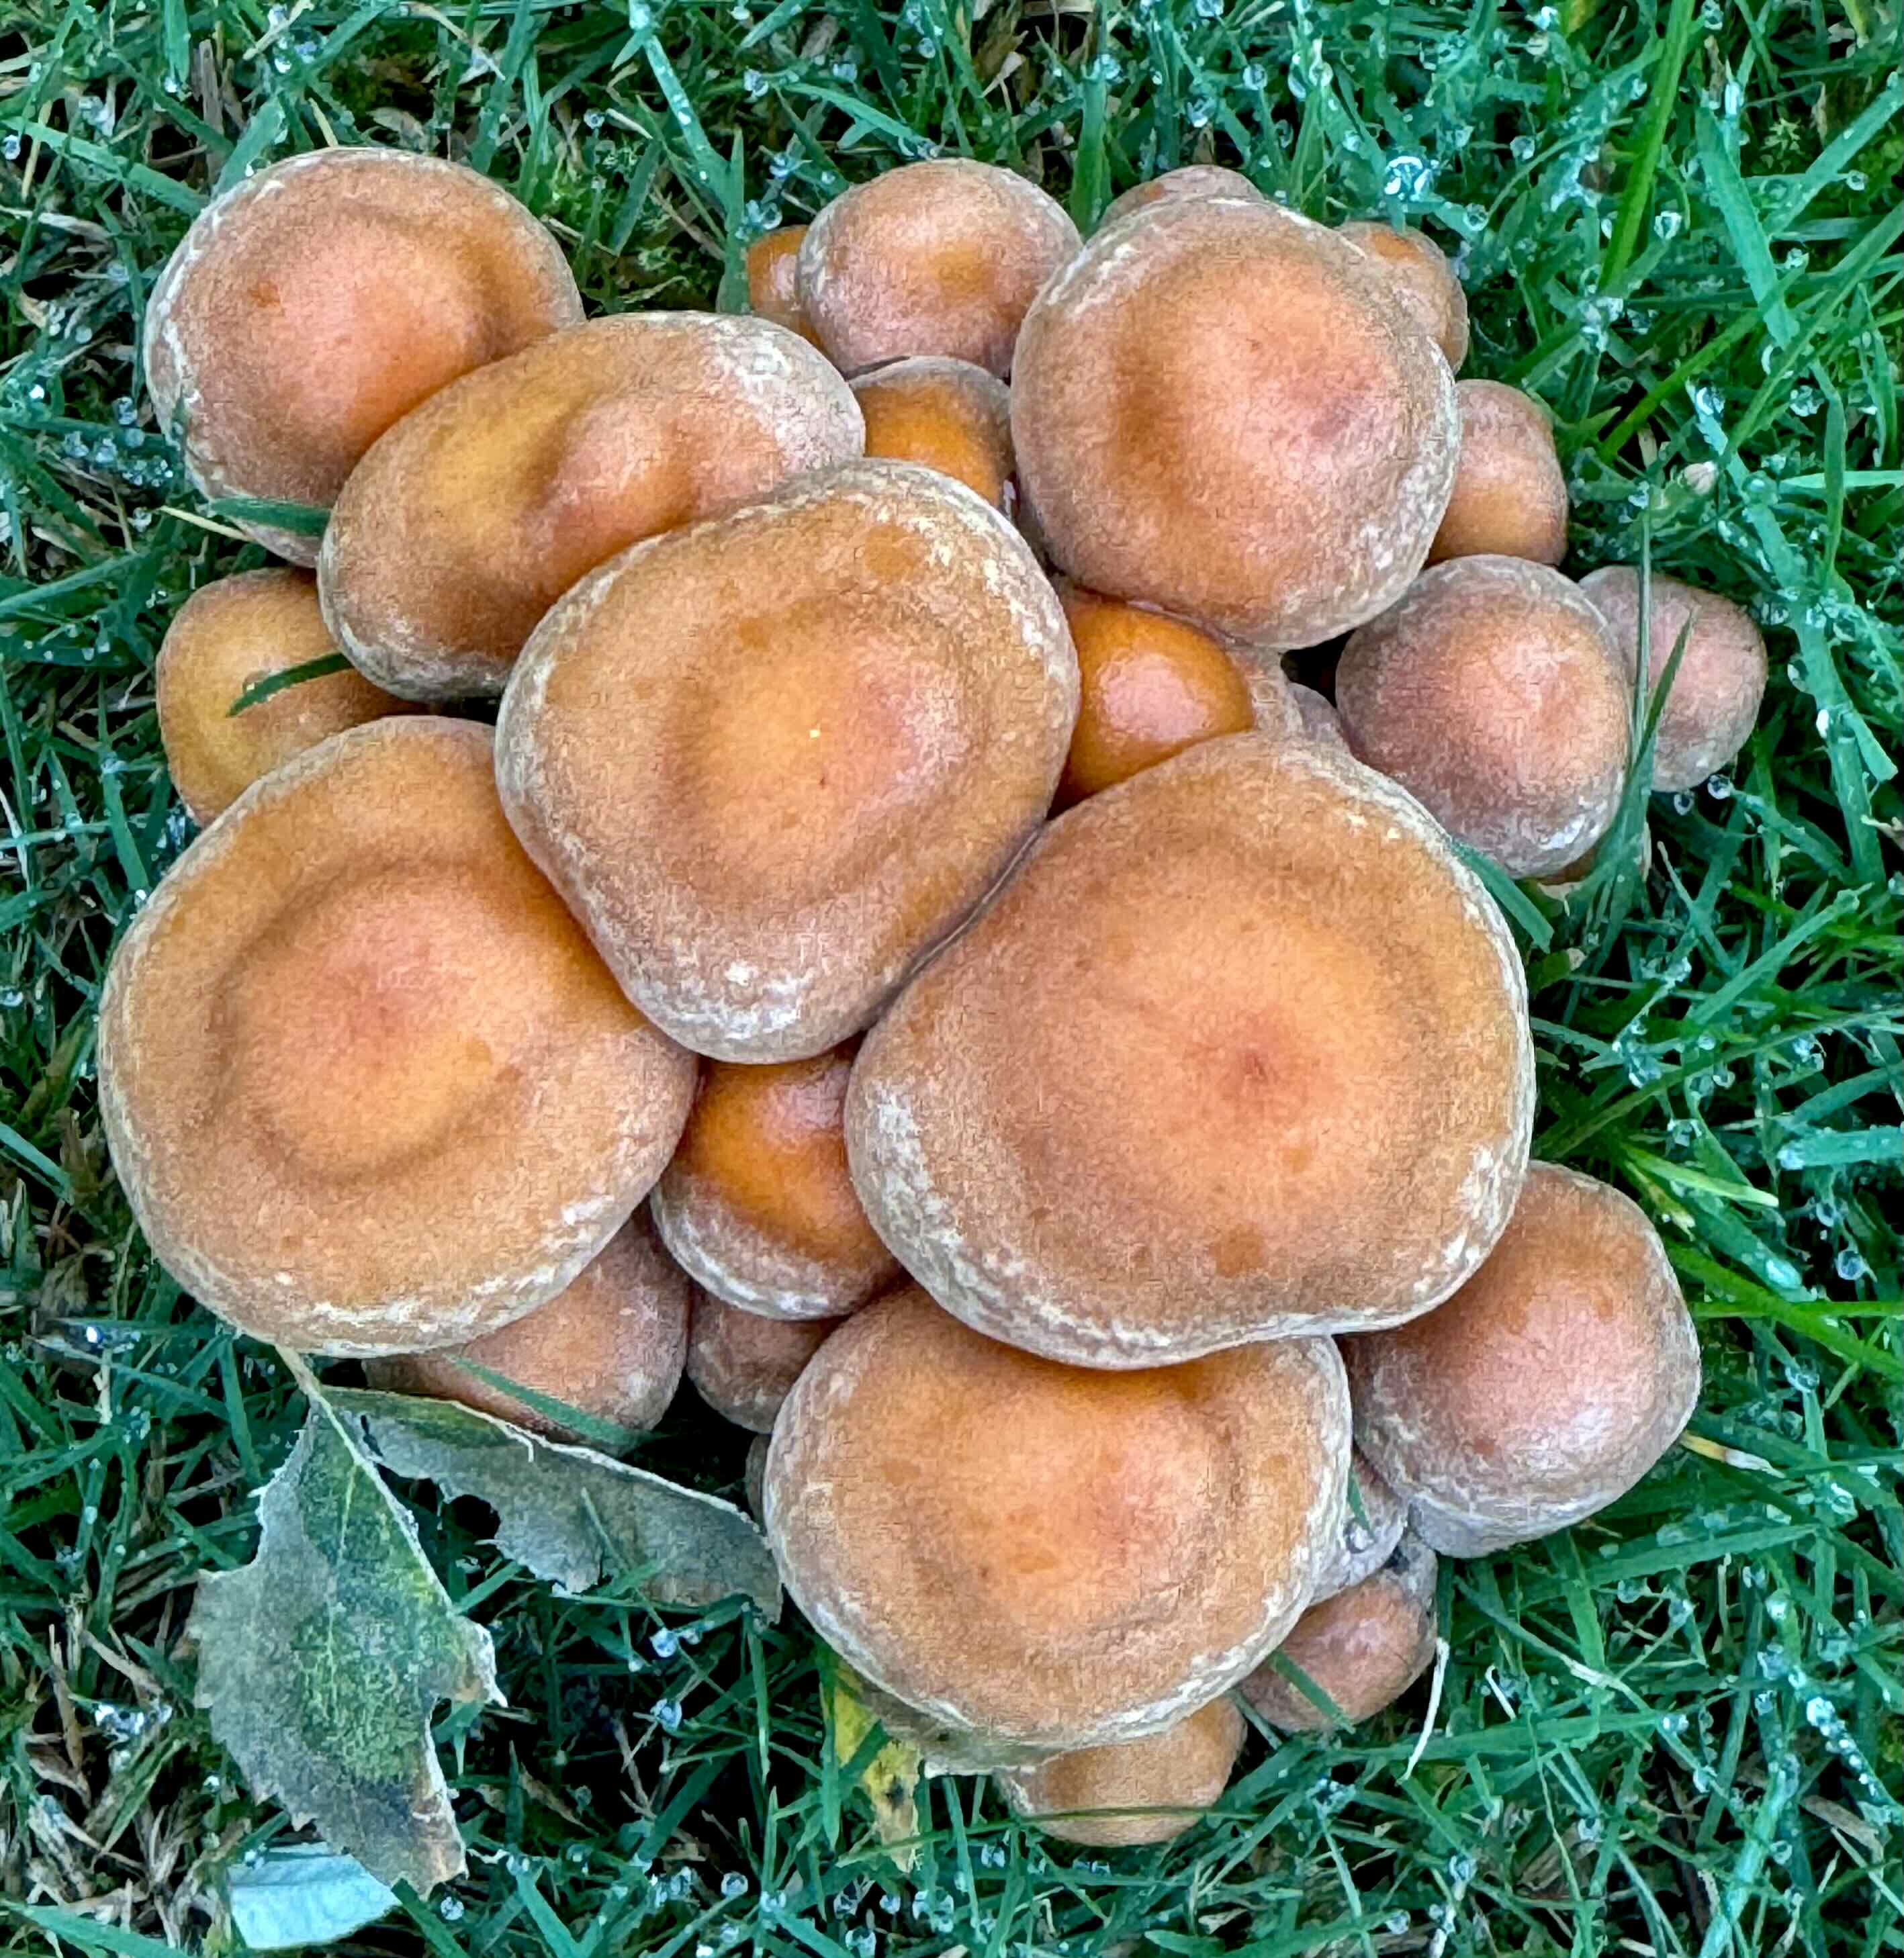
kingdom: Fungi
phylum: Basidiomycota
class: Agaricomycetes
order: Agaricales
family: Strophariaceae
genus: Hypholoma
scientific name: Hypholoma fasciculare
